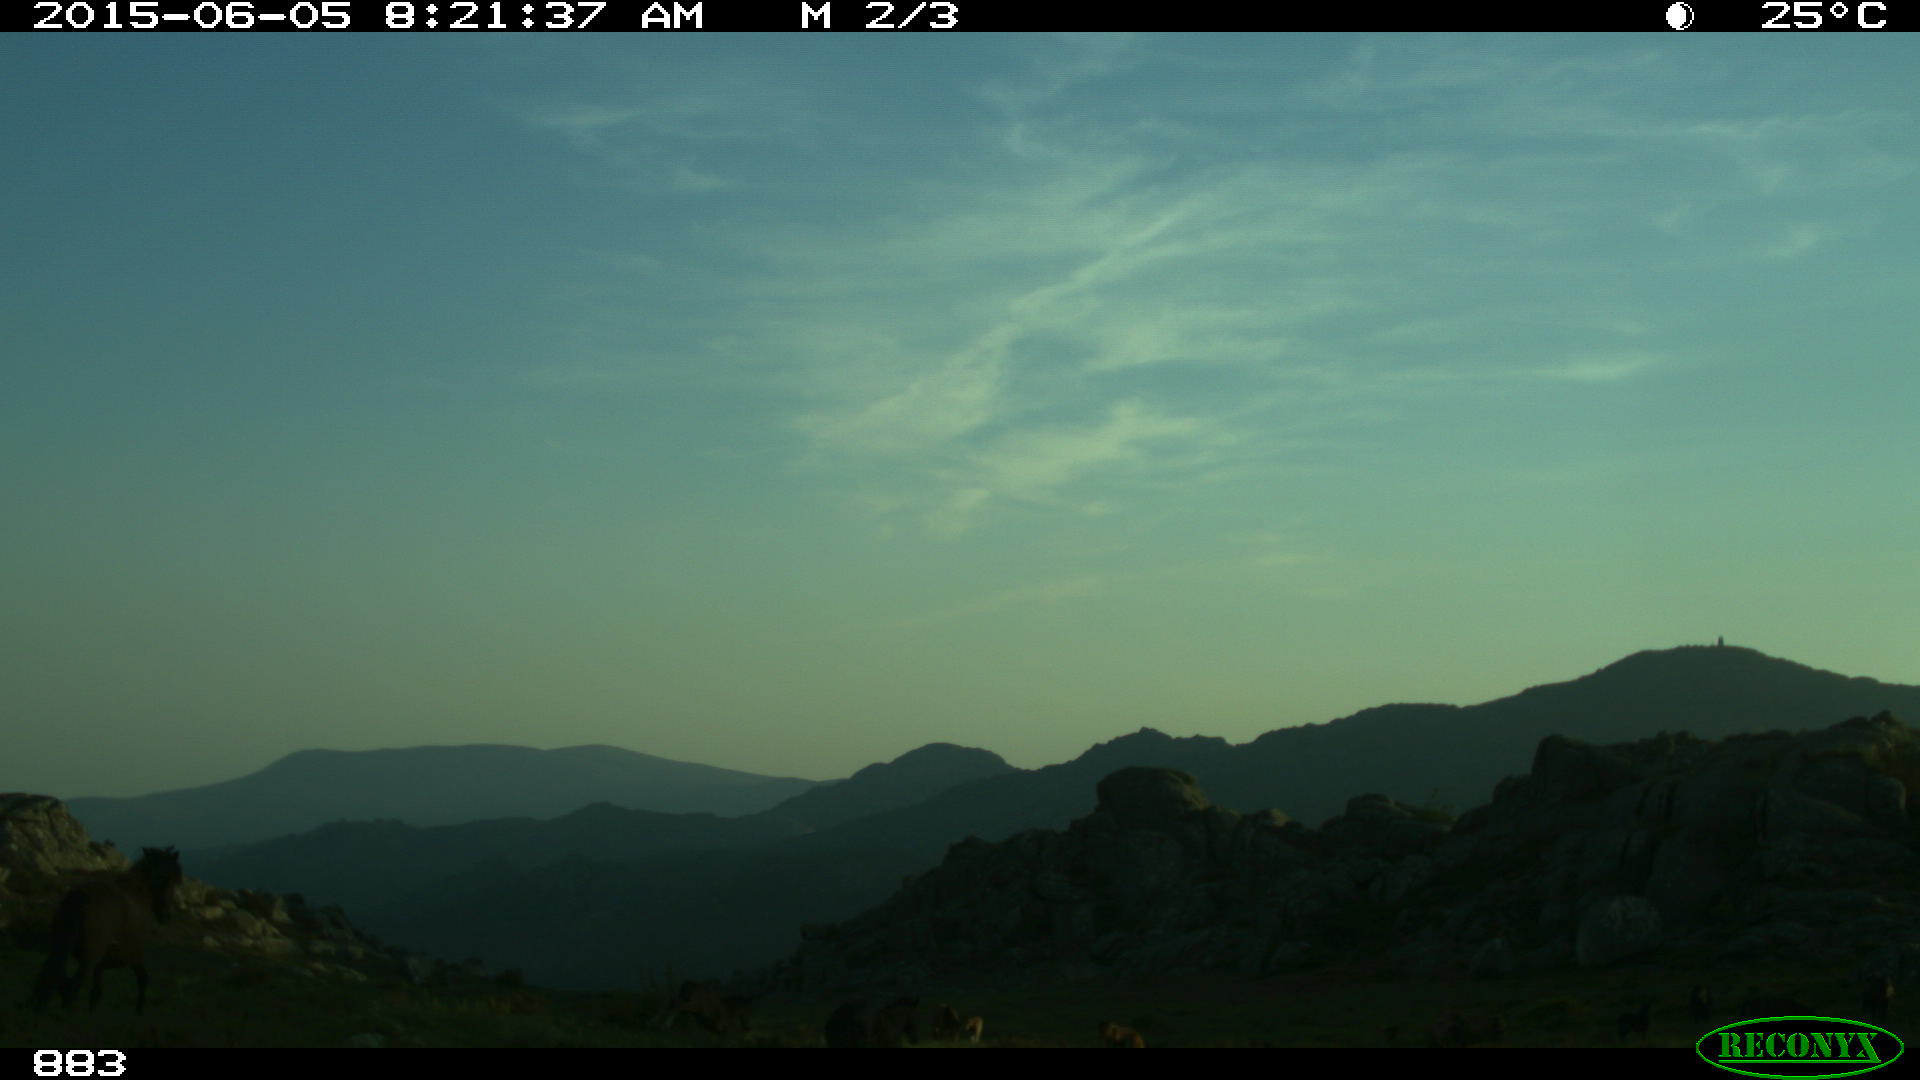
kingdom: Animalia
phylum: Chordata
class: Mammalia
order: Perissodactyla
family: Equidae
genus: Equus
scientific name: Equus caballus
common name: Horse
